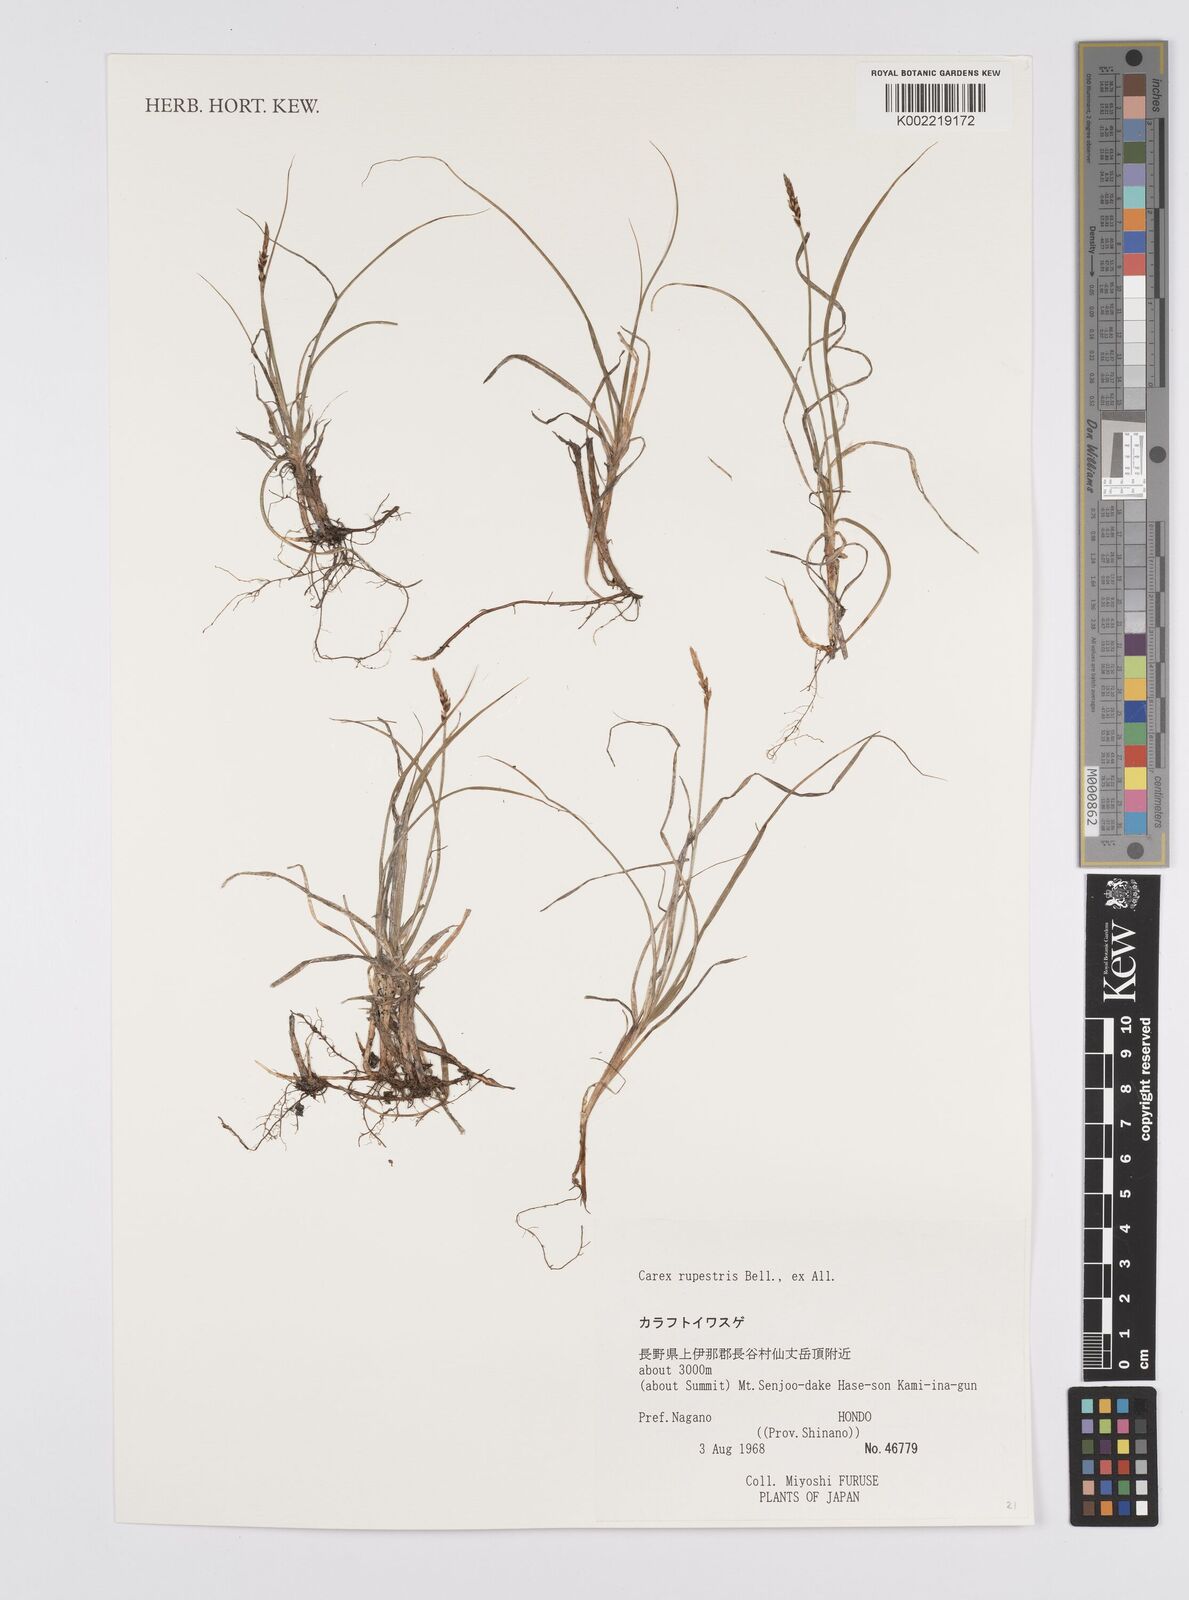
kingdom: Plantae
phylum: Tracheophyta
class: Liliopsida
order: Poales
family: Cyperaceae
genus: Carex
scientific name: Carex rupestris
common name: Rock sedge
